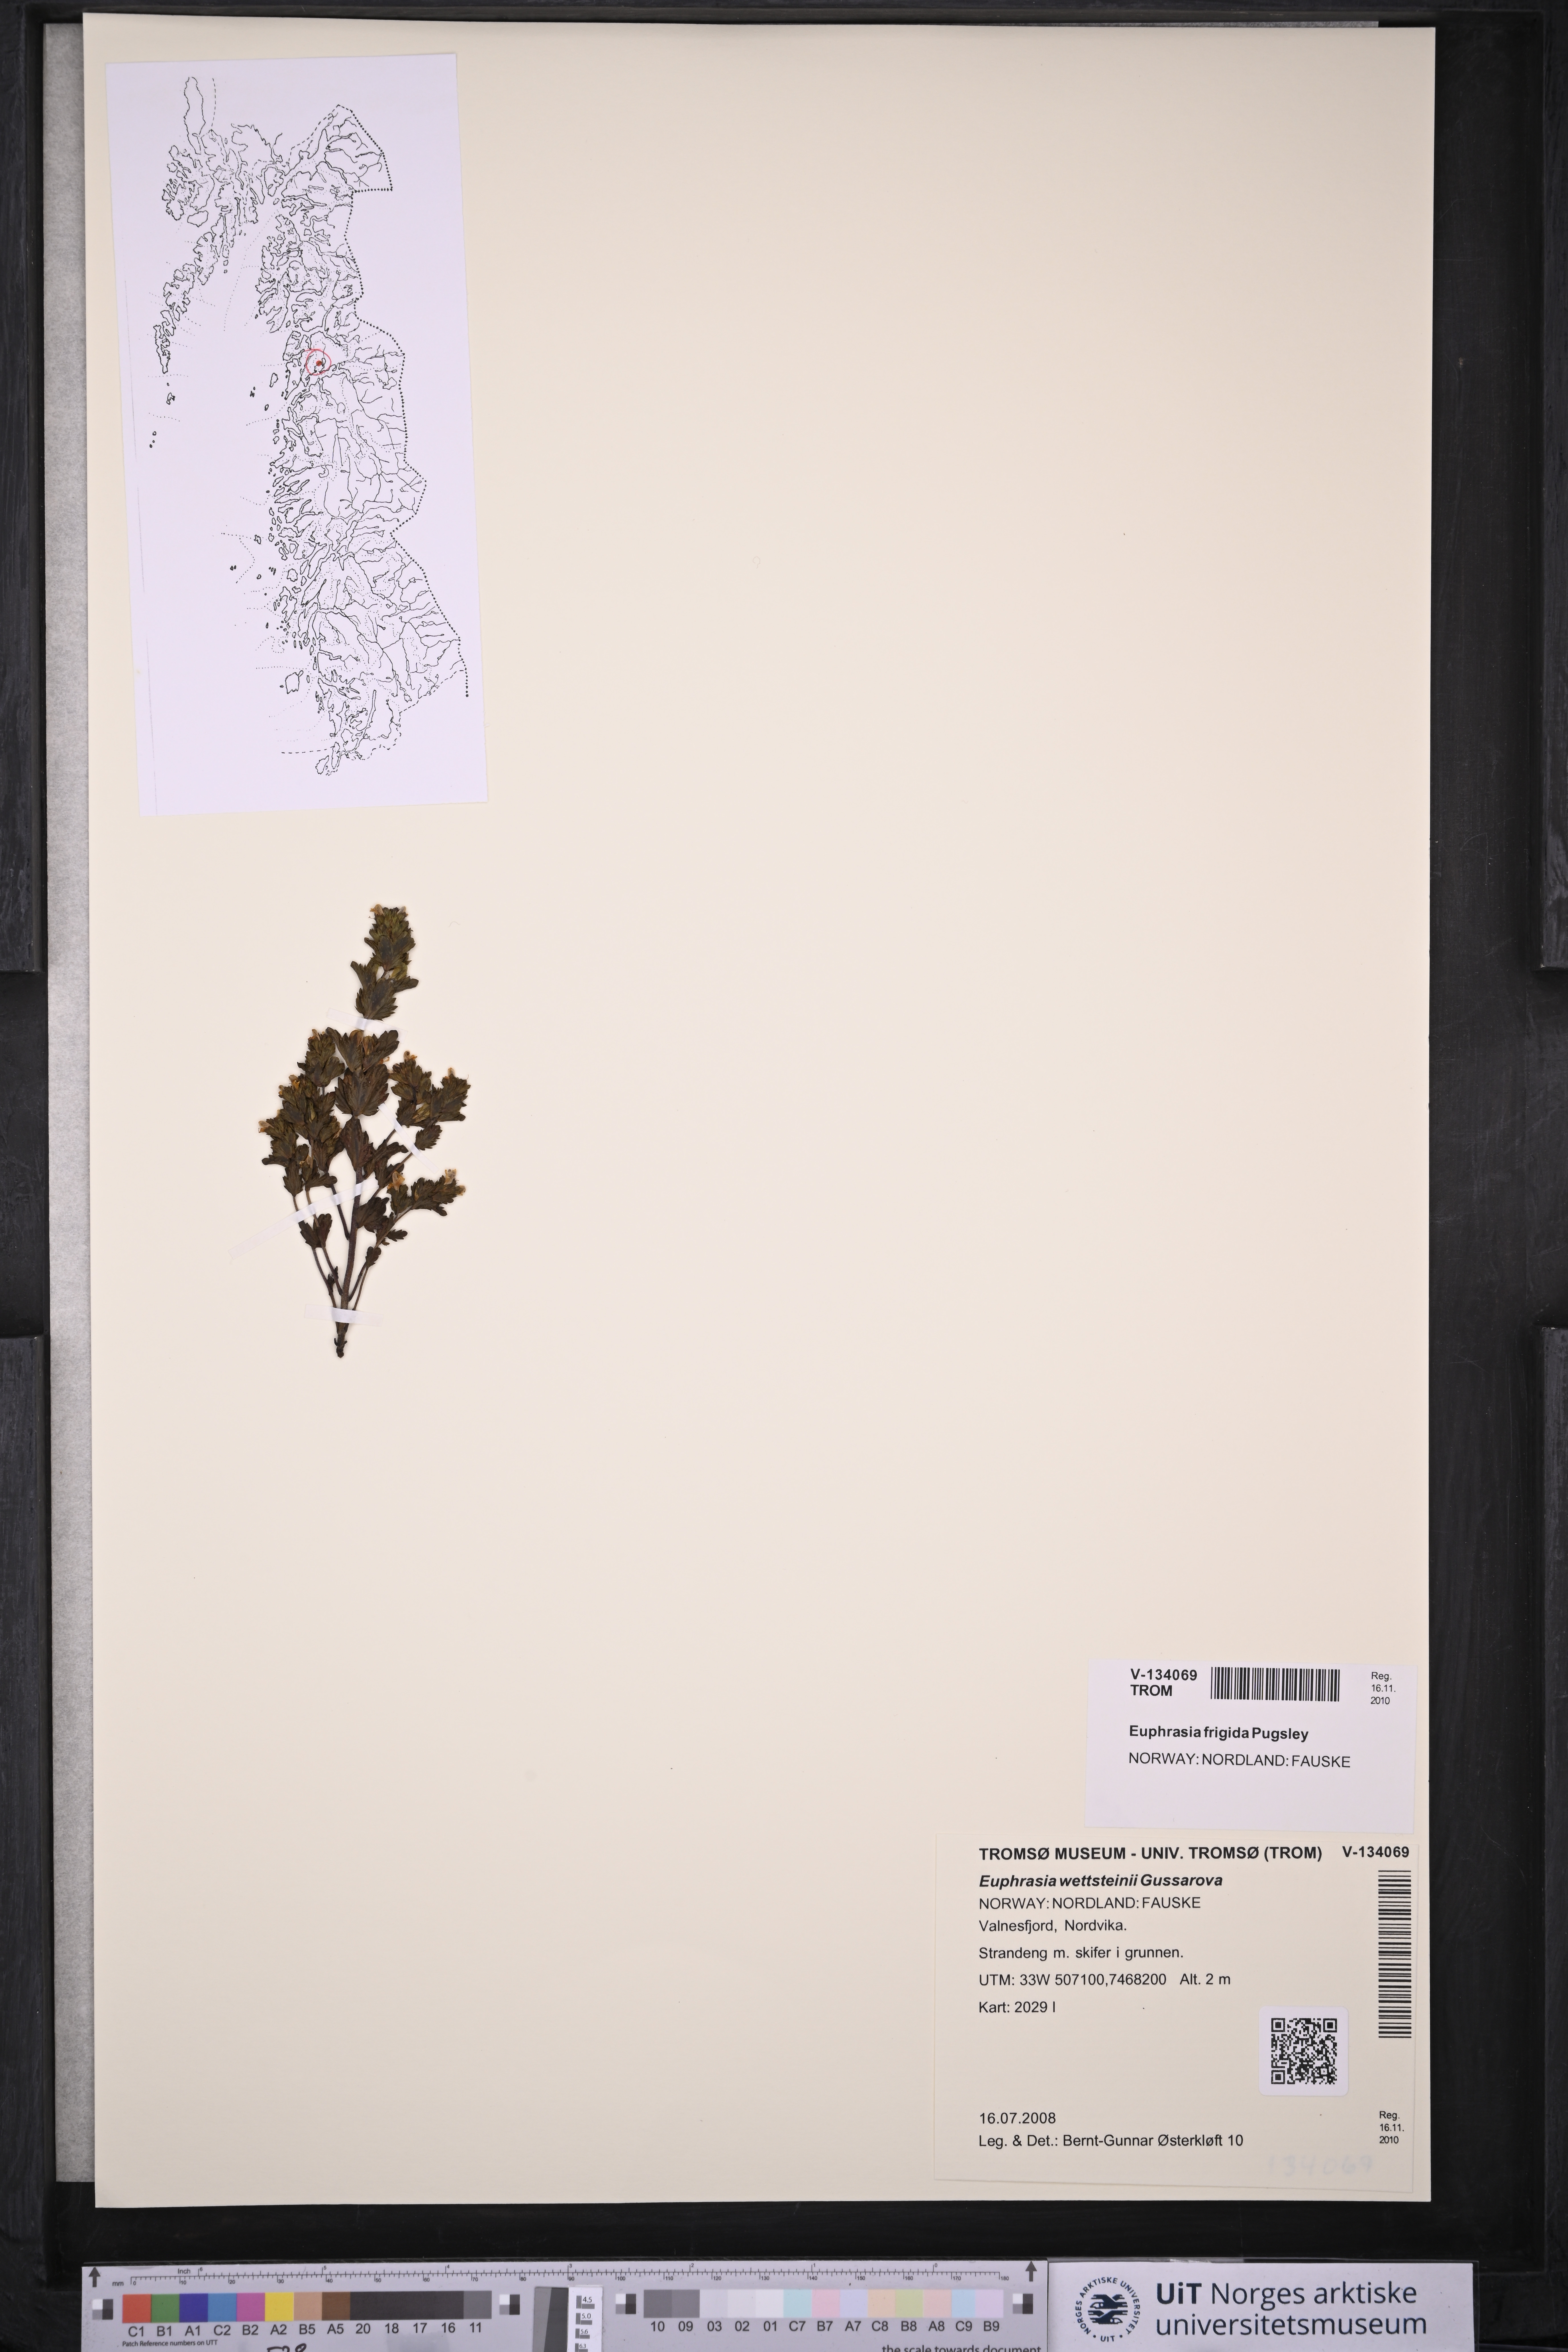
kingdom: Plantae
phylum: Tracheophyta
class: Magnoliopsida
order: Lamiales
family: Orobanchaceae
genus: Euphrasia
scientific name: Euphrasia wettsteinii
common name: Wettstein's eyebright
